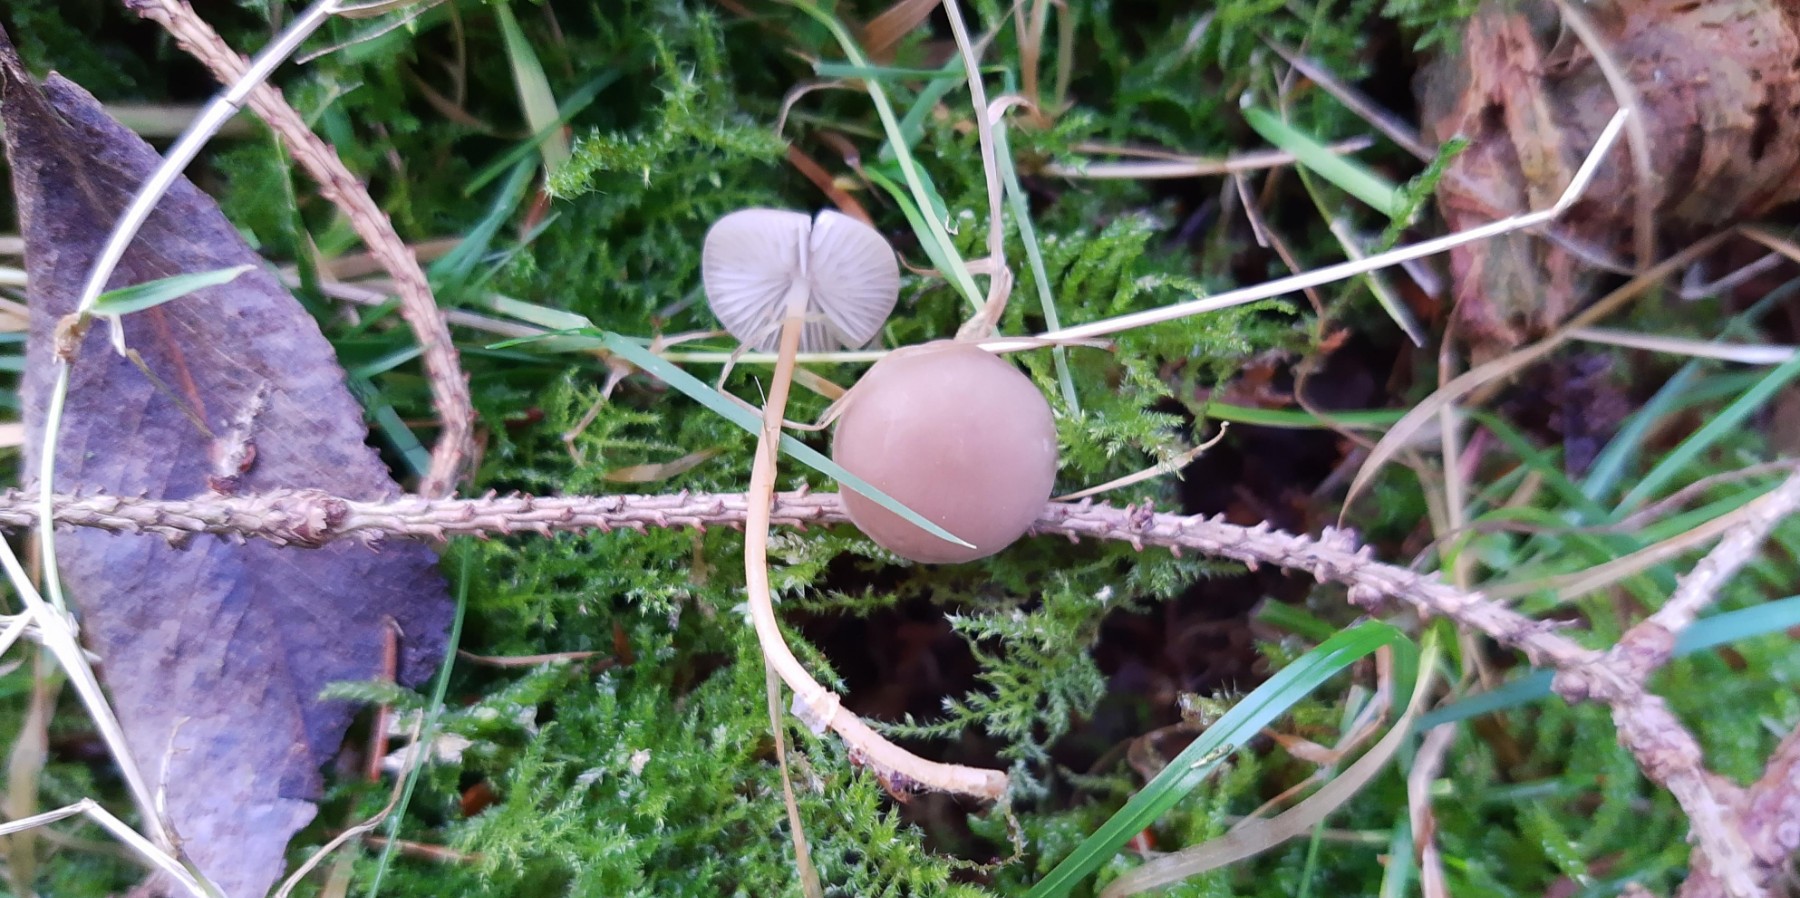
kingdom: Fungi
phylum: Basidiomycota
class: Agaricomycetes
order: Agaricales
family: Physalacriaceae
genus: Strobilurus
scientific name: Strobilurus esculentus
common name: gran-koglehat
